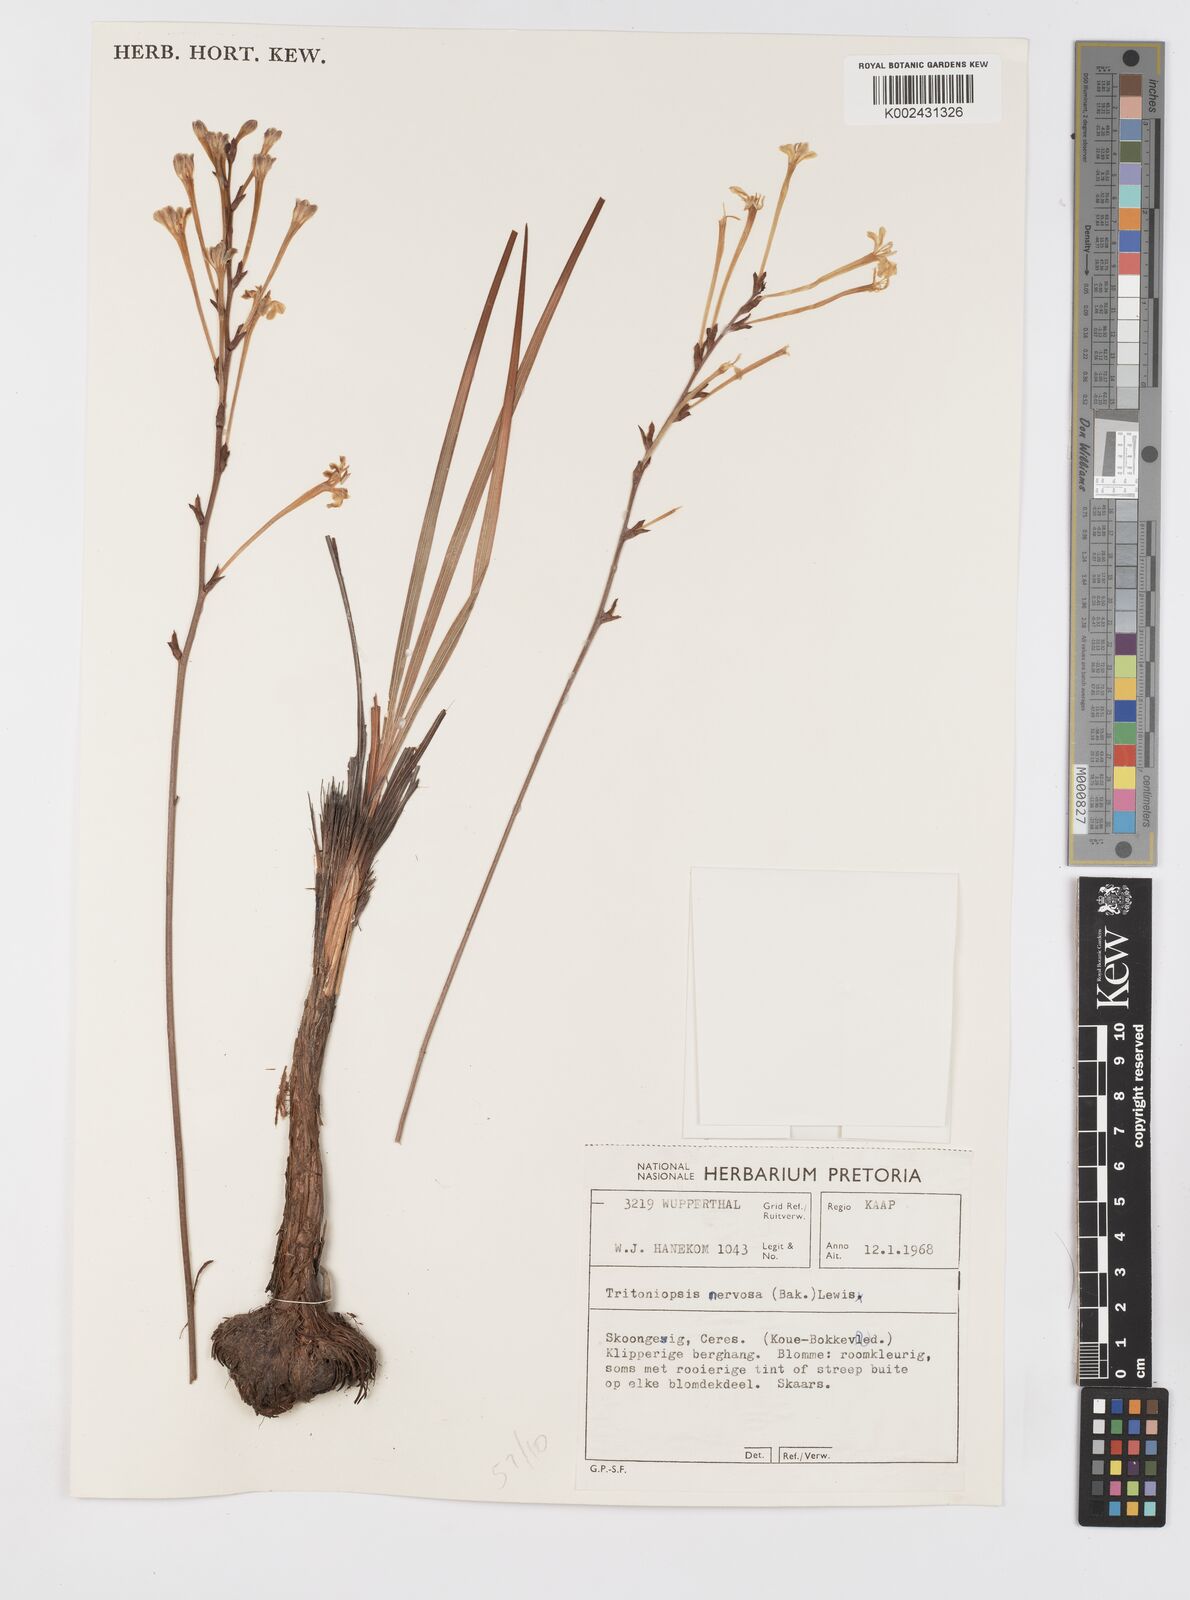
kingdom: Plantae
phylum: Tracheophyta
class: Liliopsida
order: Asparagales
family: Iridaceae
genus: Tritoniopsis
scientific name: Tritoniopsis nervosa
